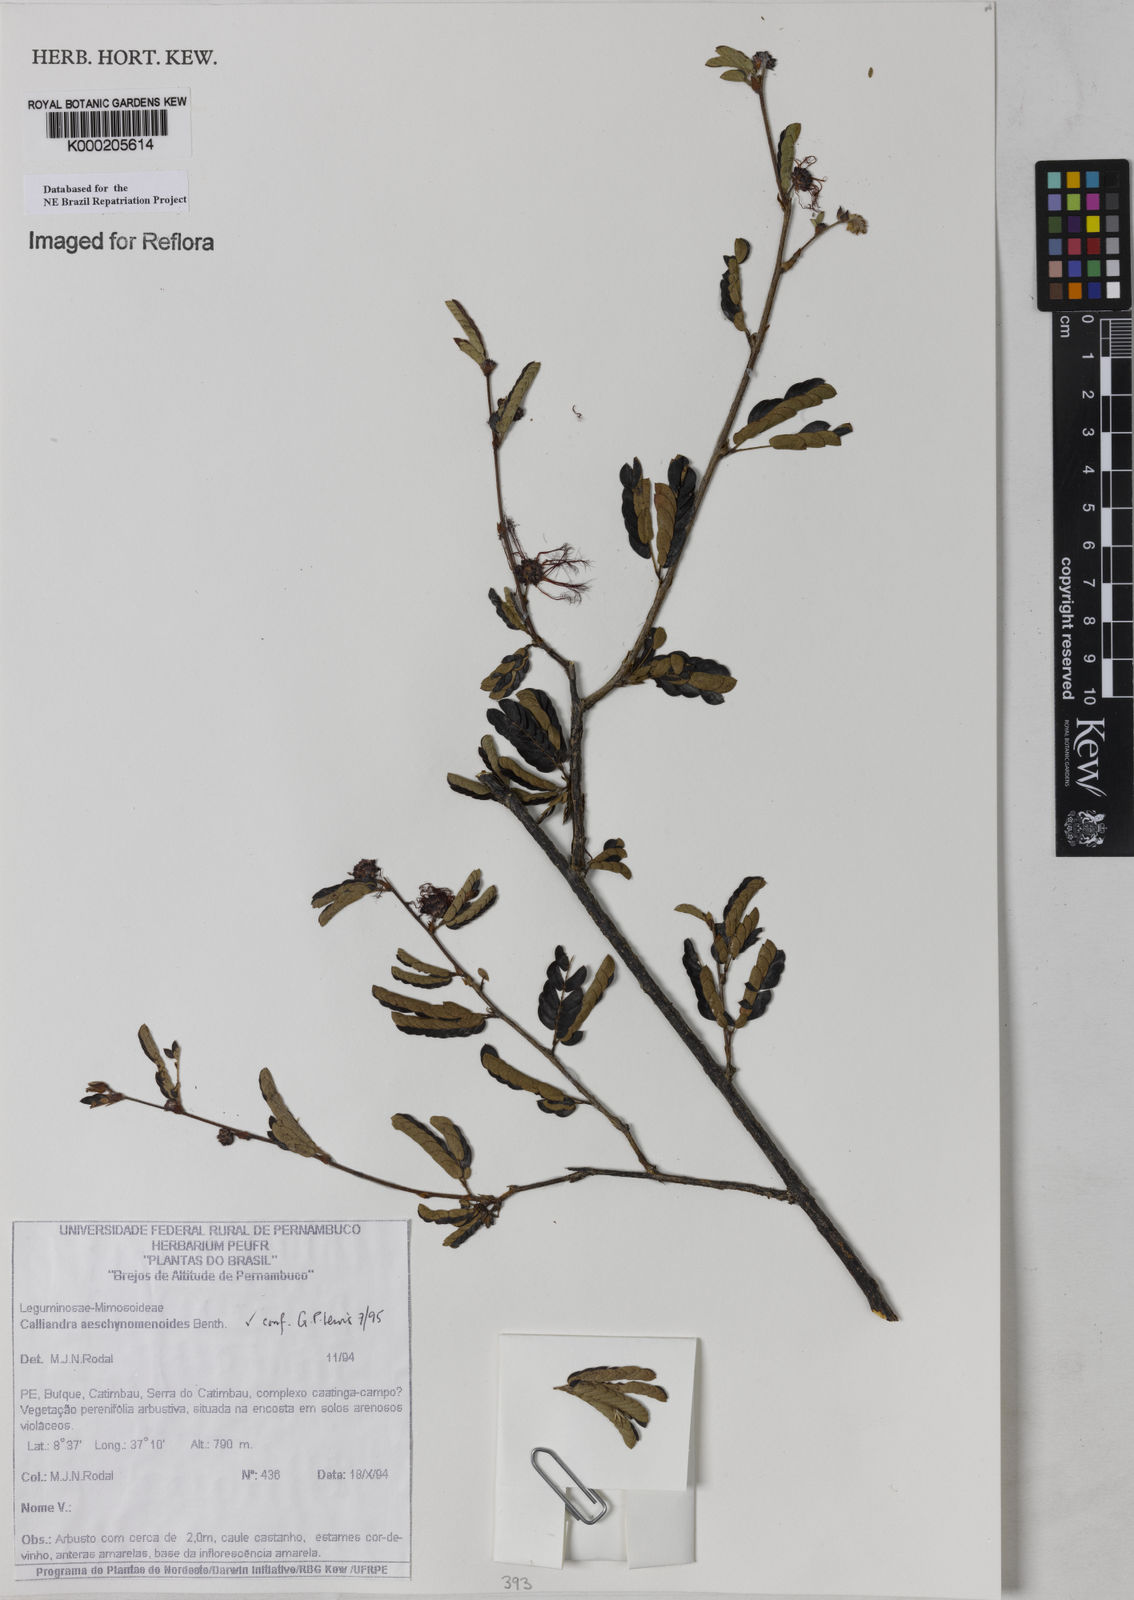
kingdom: Plantae
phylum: Tracheophyta
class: Magnoliopsida
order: Fabales
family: Fabaceae
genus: Calliandra
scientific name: Calliandra aeschynomenoides
